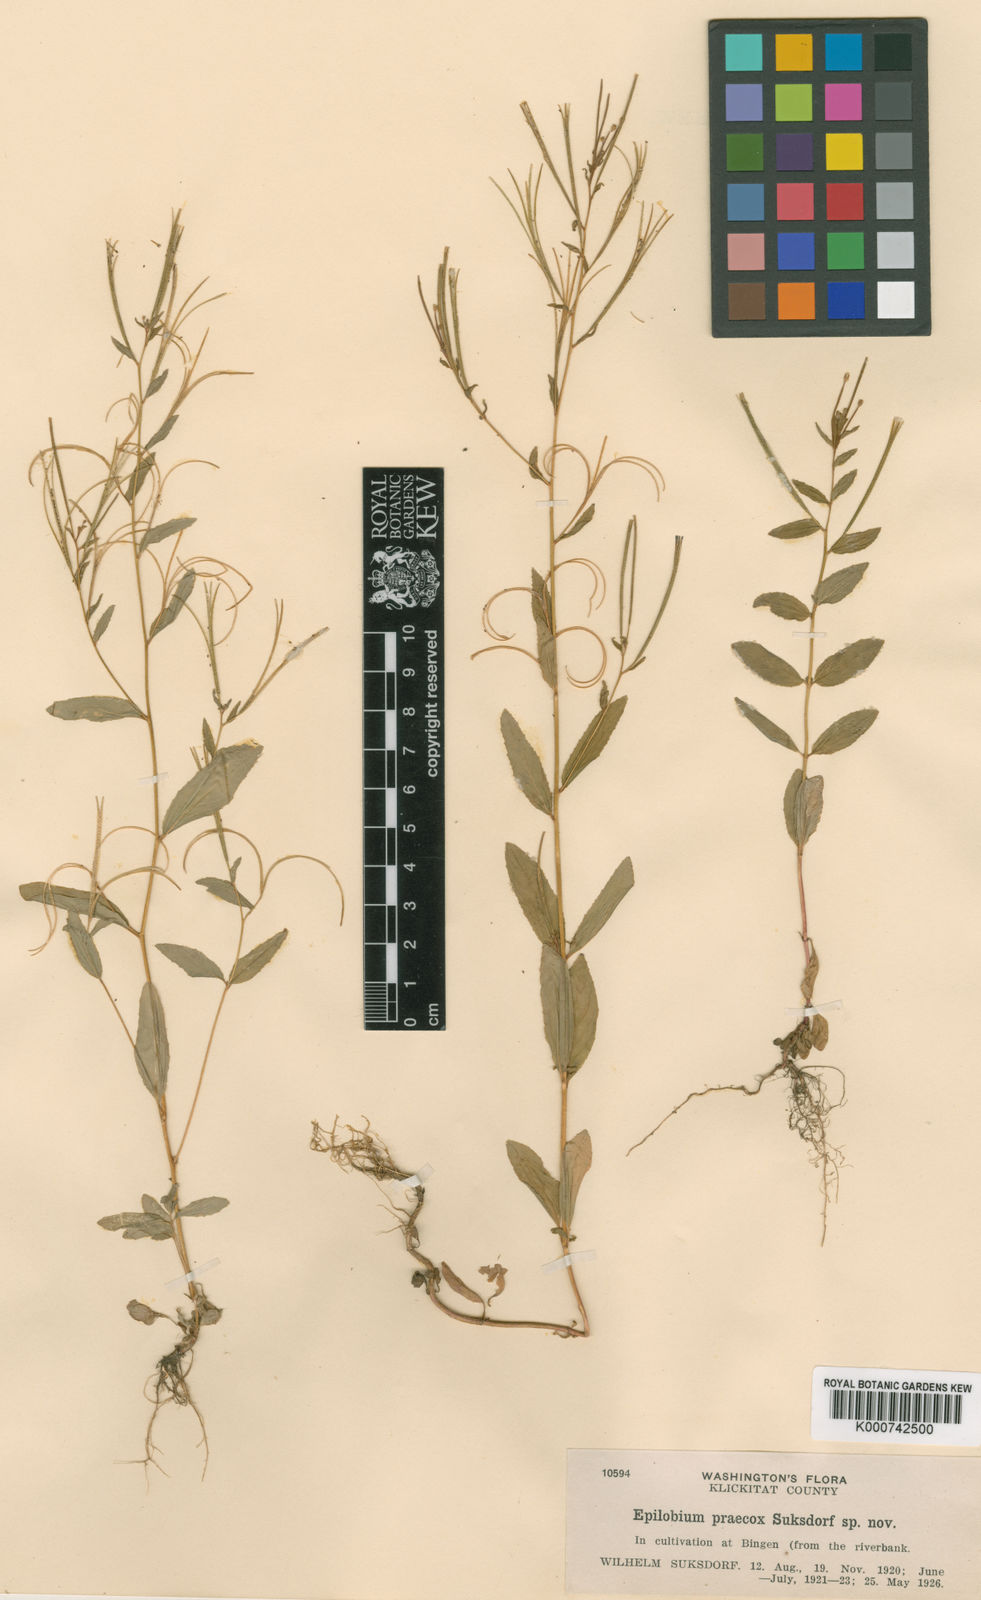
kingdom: Plantae
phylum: Tracheophyta
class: Magnoliopsida
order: Myrtales
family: Onagraceae
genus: Epilobium
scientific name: Epilobium ciliatum
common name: American willowherb
